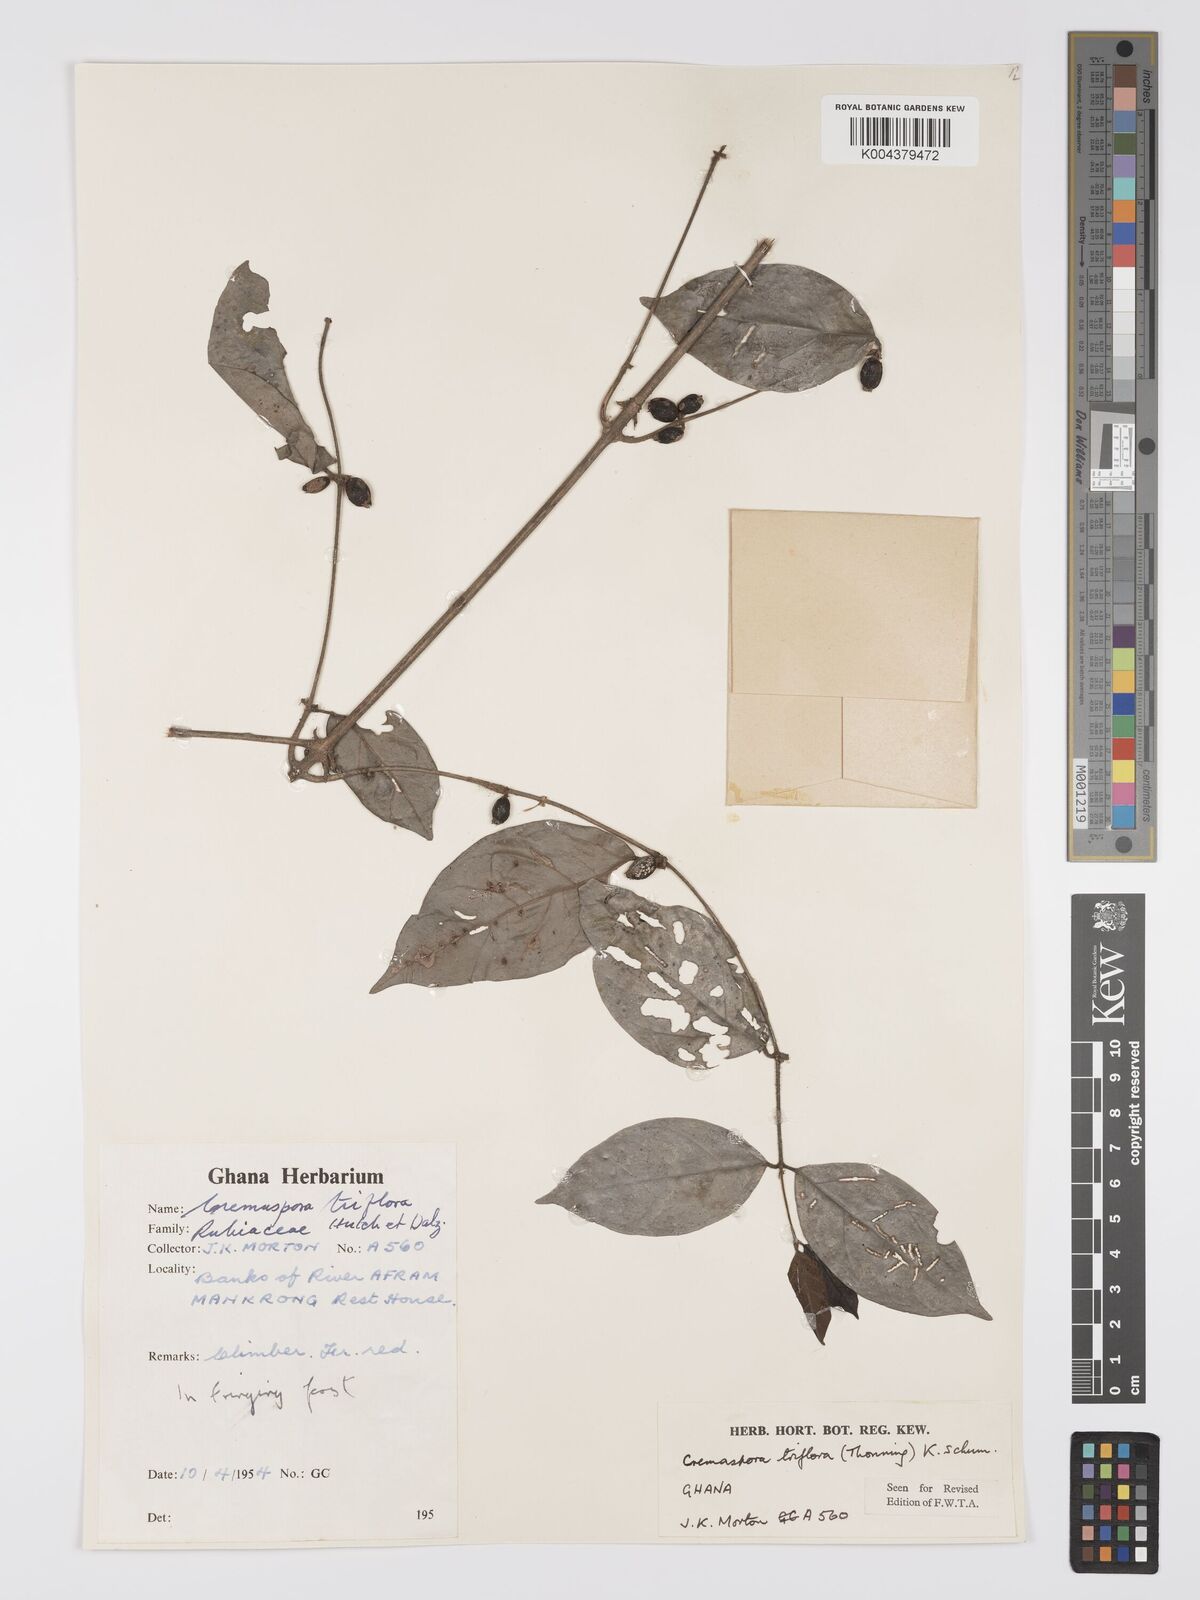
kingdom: Plantae
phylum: Tracheophyta
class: Magnoliopsida
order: Gentianales
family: Rubiaceae
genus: Cremaspora
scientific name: Cremaspora triflora
